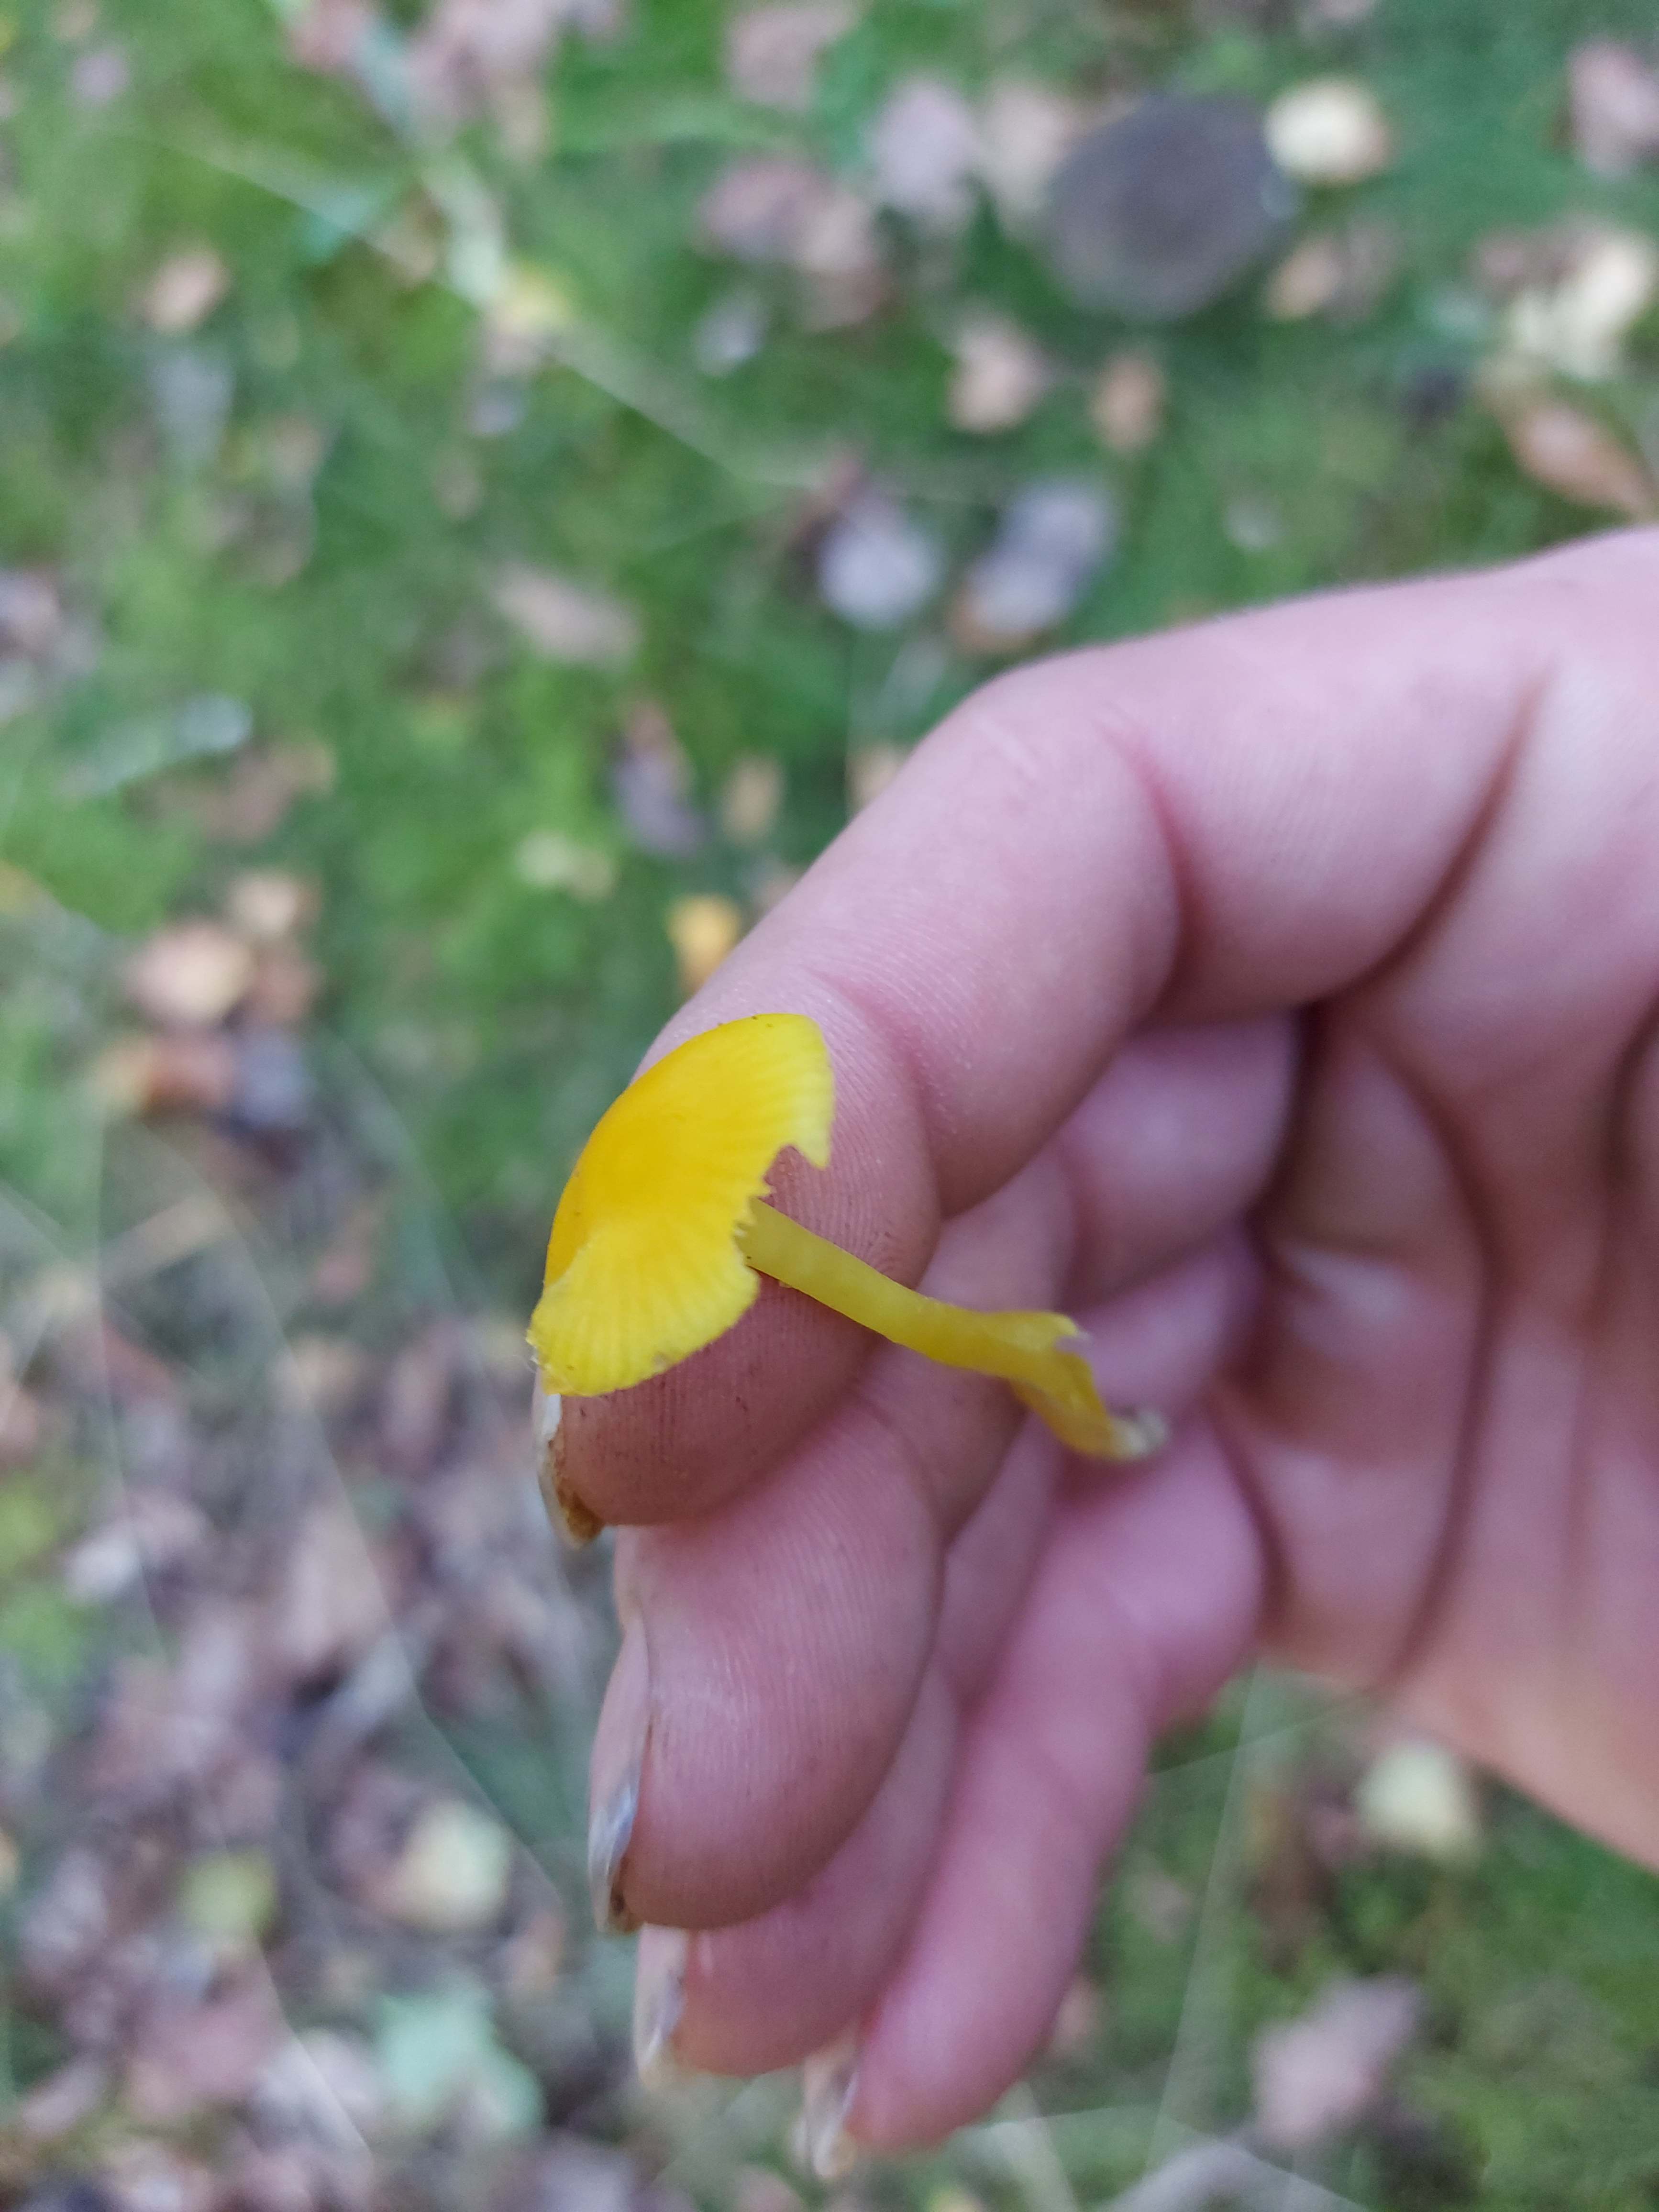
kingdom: Fungi
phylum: Basidiomycota
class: Agaricomycetes
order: Agaricales
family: Hygrophoraceae
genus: Hygrocybe
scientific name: Hygrocybe ceracea
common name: voksgul vokshat
